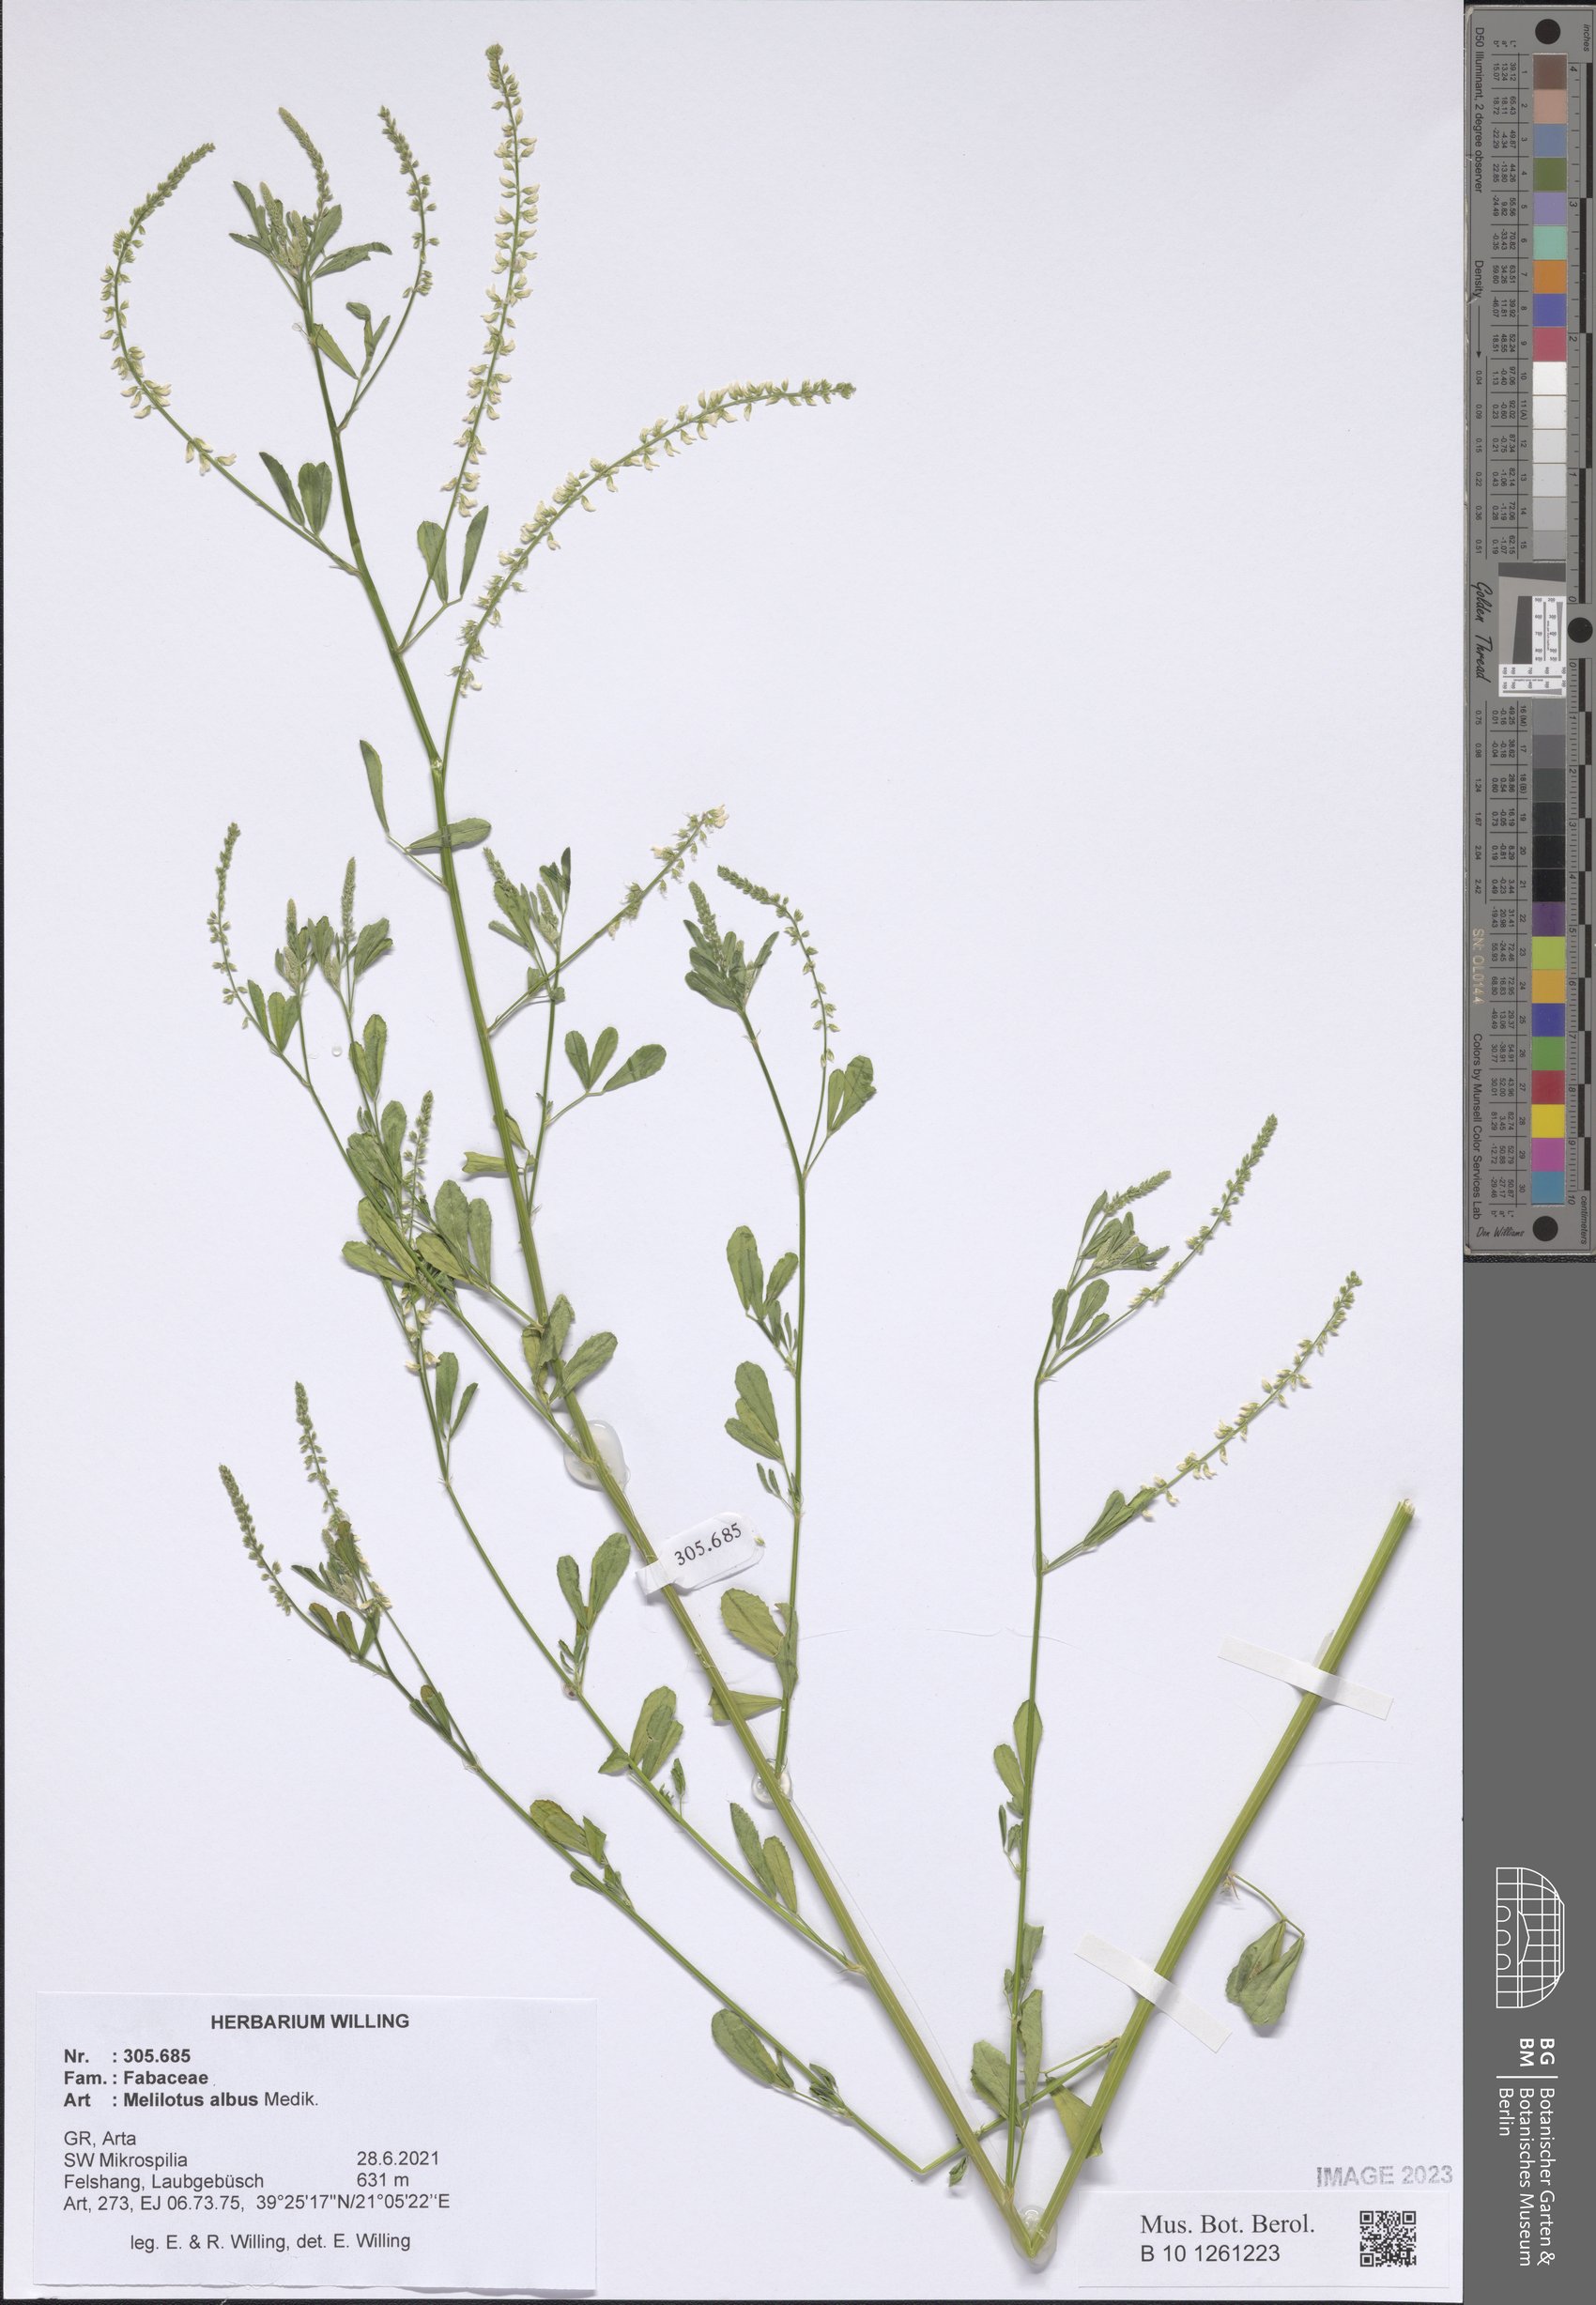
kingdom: Plantae
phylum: Tracheophyta
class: Magnoliopsida
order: Fabales
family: Fabaceae
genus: Melilotus
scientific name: Melilotus albus
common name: White melilot
